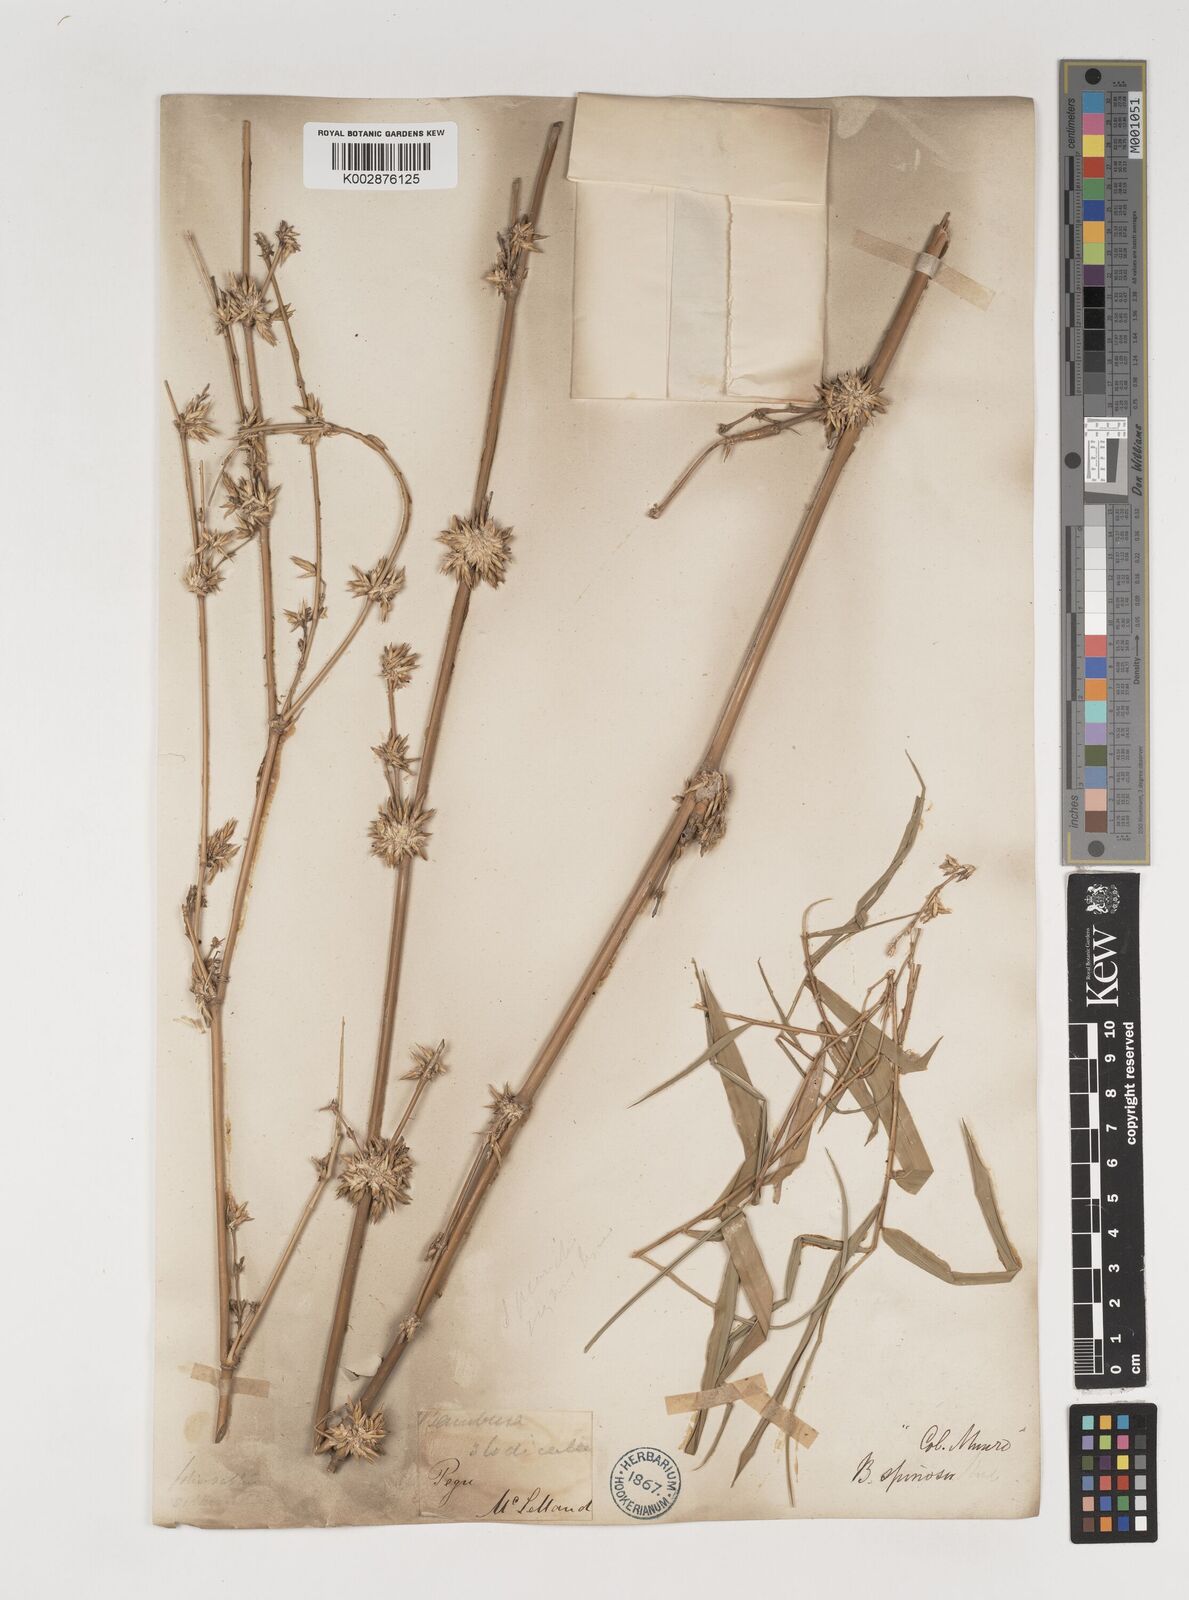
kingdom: Plantae
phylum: Tracheophyta
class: Liliopsida
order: Poales
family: Poaceae
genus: Bambusa
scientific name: Bambusa bambos
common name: Indian thorny bamboo
